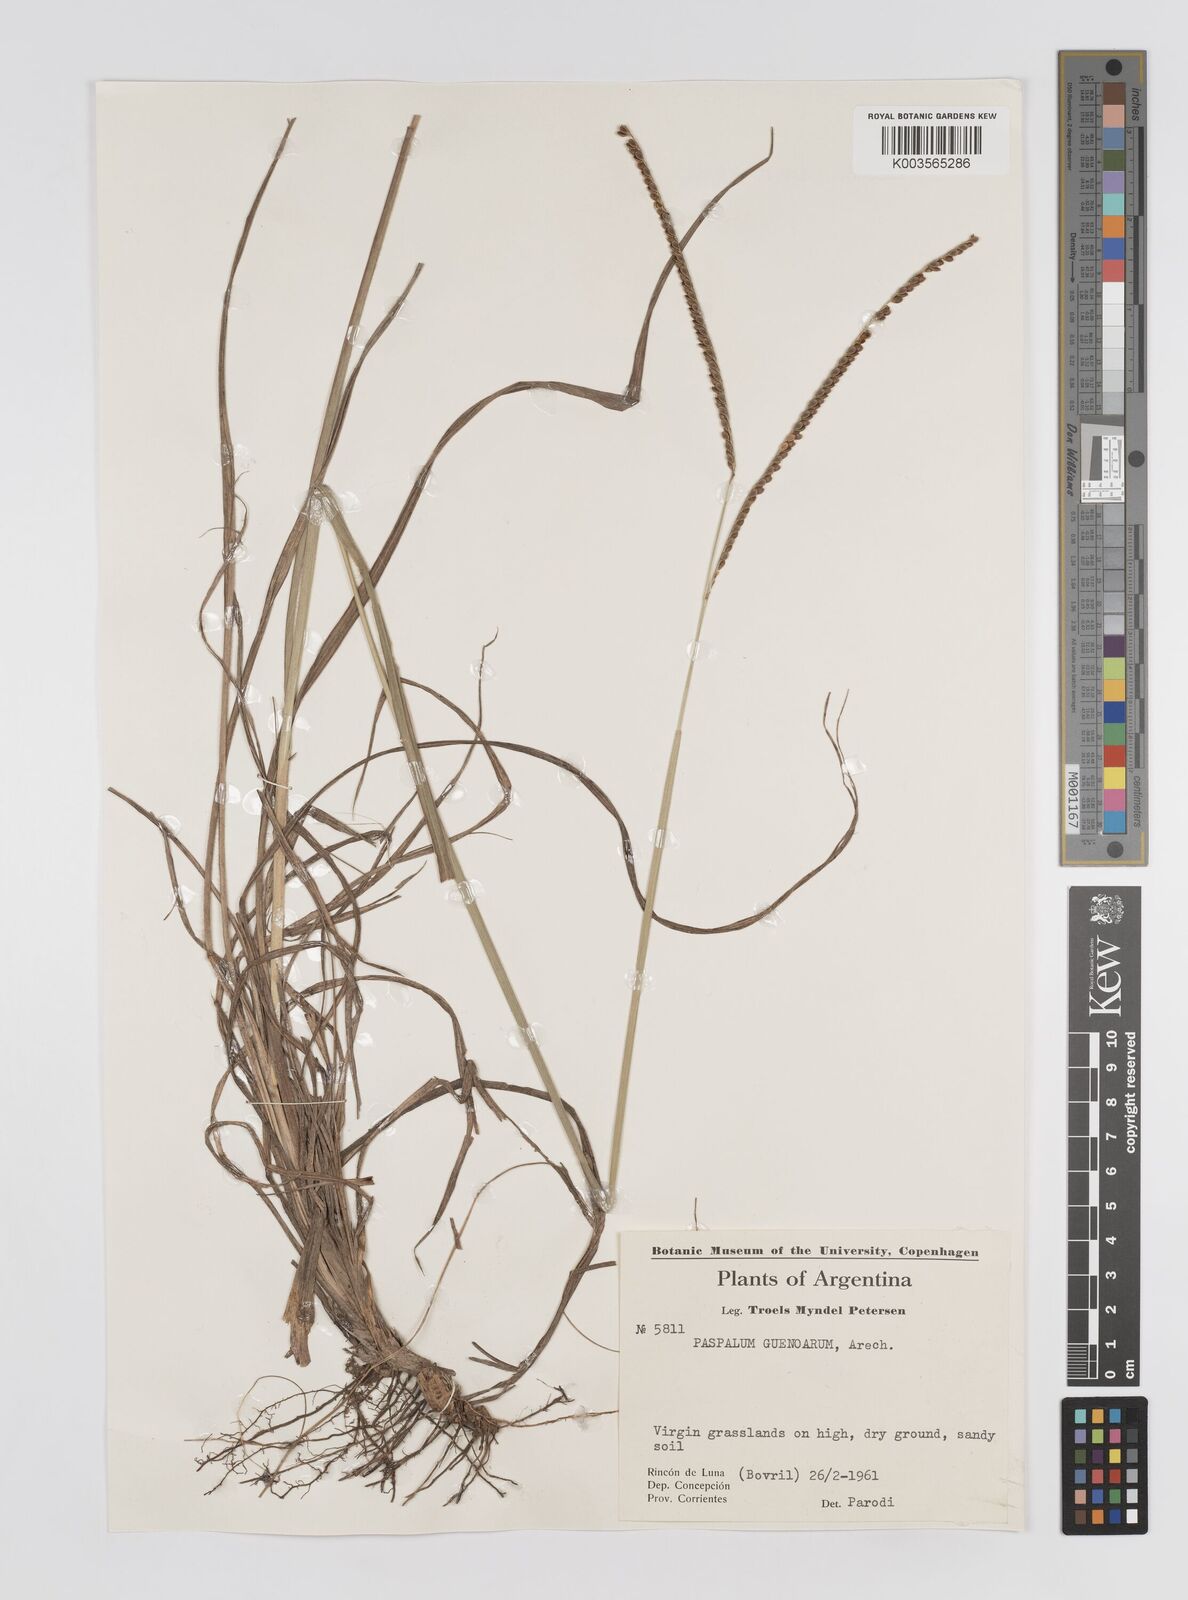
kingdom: Plantae
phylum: Tracheophyta
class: Liliopsida
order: Poales
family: Poaceae
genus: Paspalum
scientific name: Paspalum guenoarum
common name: Wintergreen paspalum
